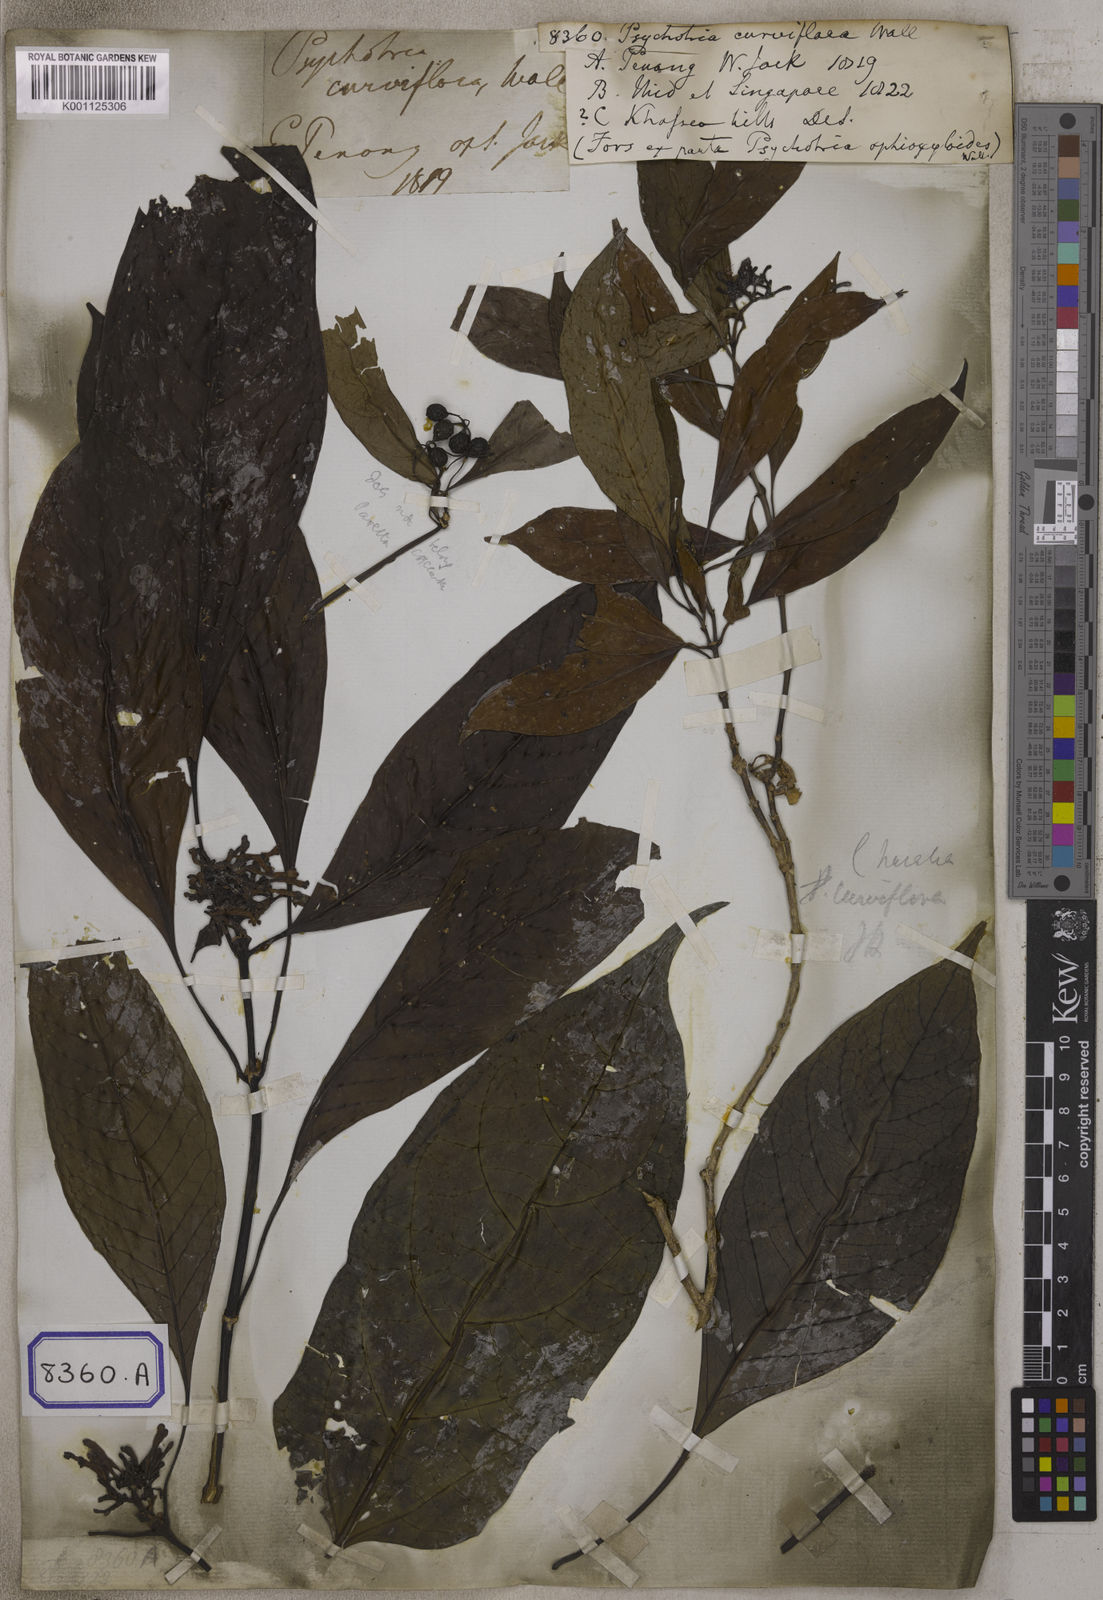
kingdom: Plantae
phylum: Tracheophyta
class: Magnoliopsida
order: Gentianales
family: Rubiaceae
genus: Chassalia
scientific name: Chassalia curviflora
